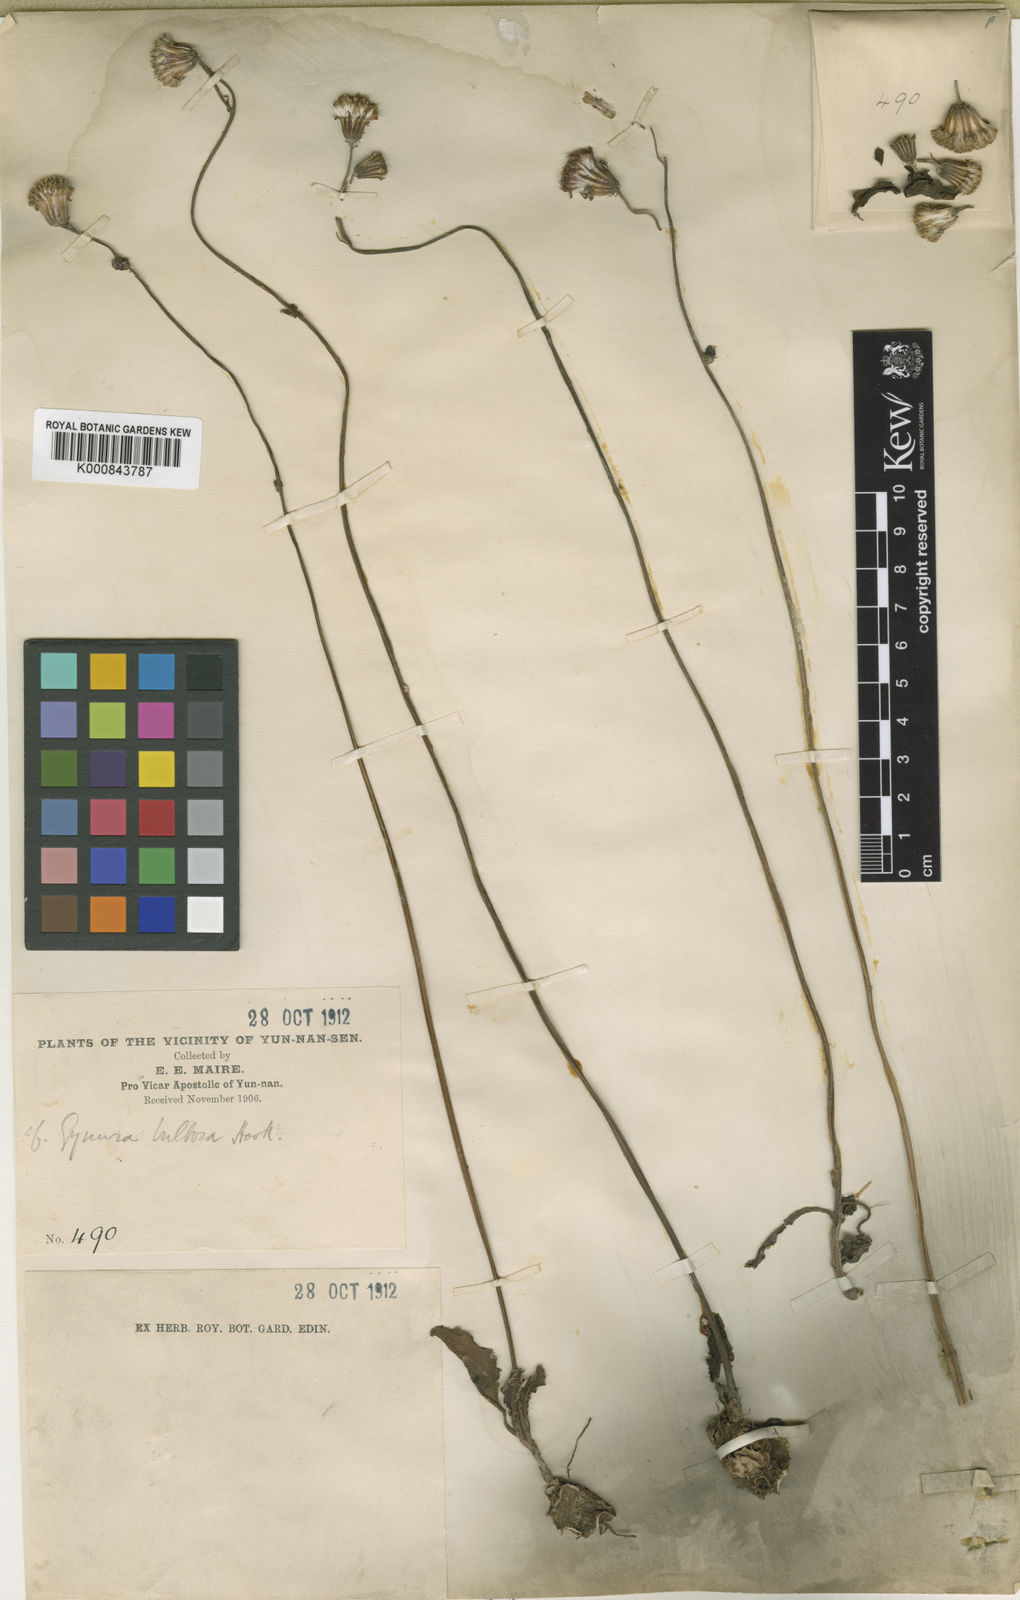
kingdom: Plantae
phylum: Tracheophyta
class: Magnoliopsida
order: Asterales
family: Asteraceae
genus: Gynura
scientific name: Gynura
